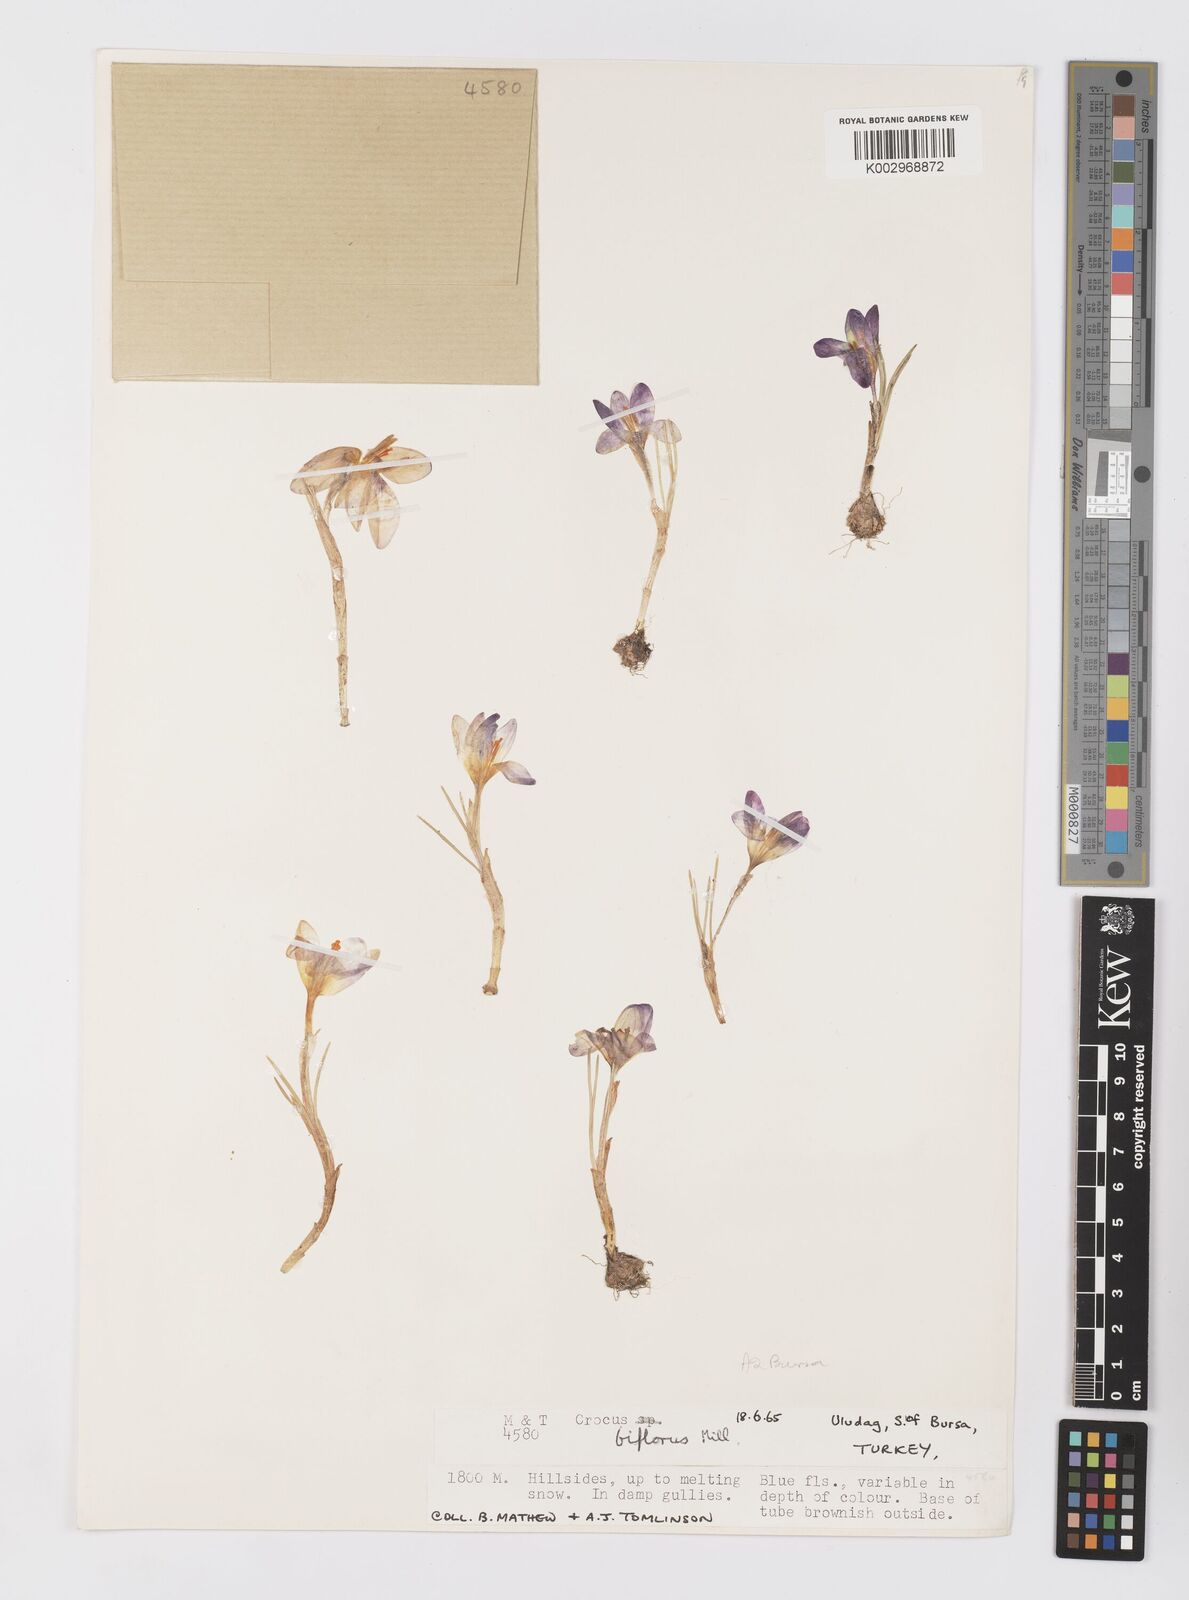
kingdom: Plantae
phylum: Tracheophyta
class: Liliopsida
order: Asparagales
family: Iridaceae
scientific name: Iridaceae
